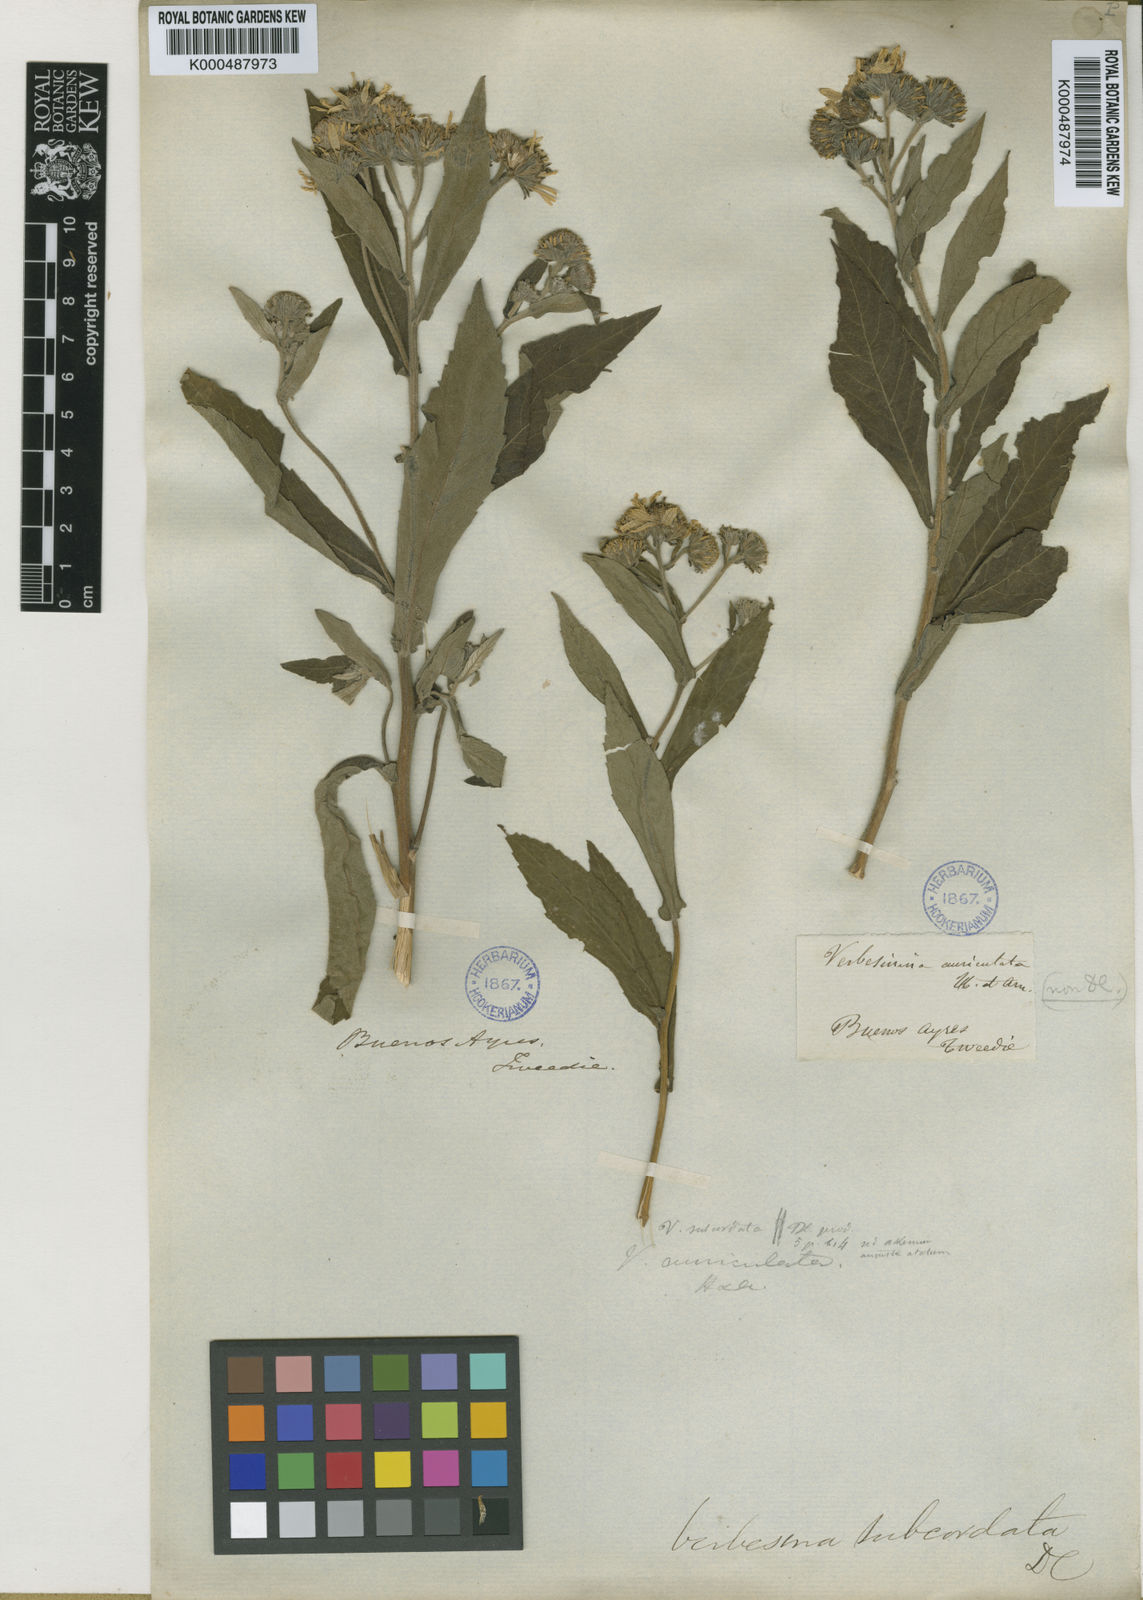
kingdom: Plantae
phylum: Tracheophyta
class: Magnoliopsida
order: Asterales
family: Asteraceae
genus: Verbesina
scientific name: Verbesina subcordata
